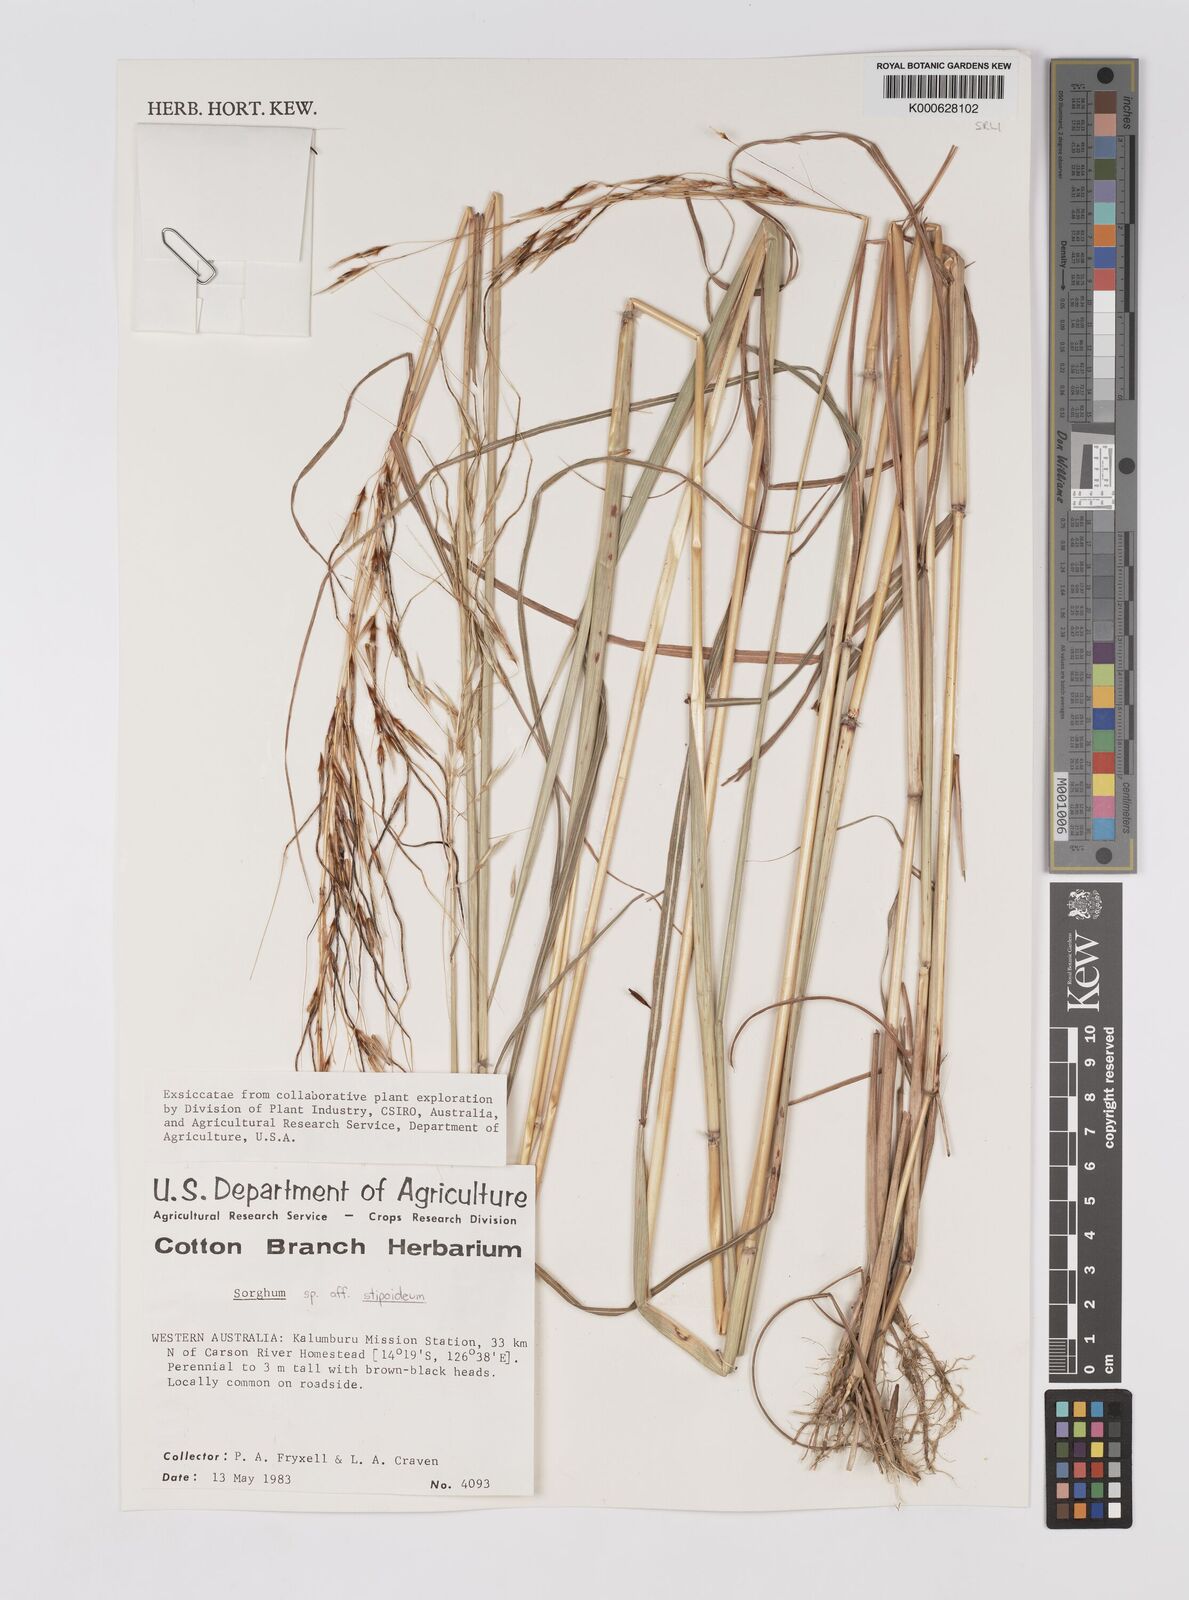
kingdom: Plantae
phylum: Tracheophyta
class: Liliopsida
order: Poales
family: Poaceae
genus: Sarga
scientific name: Sarga stipoidea
